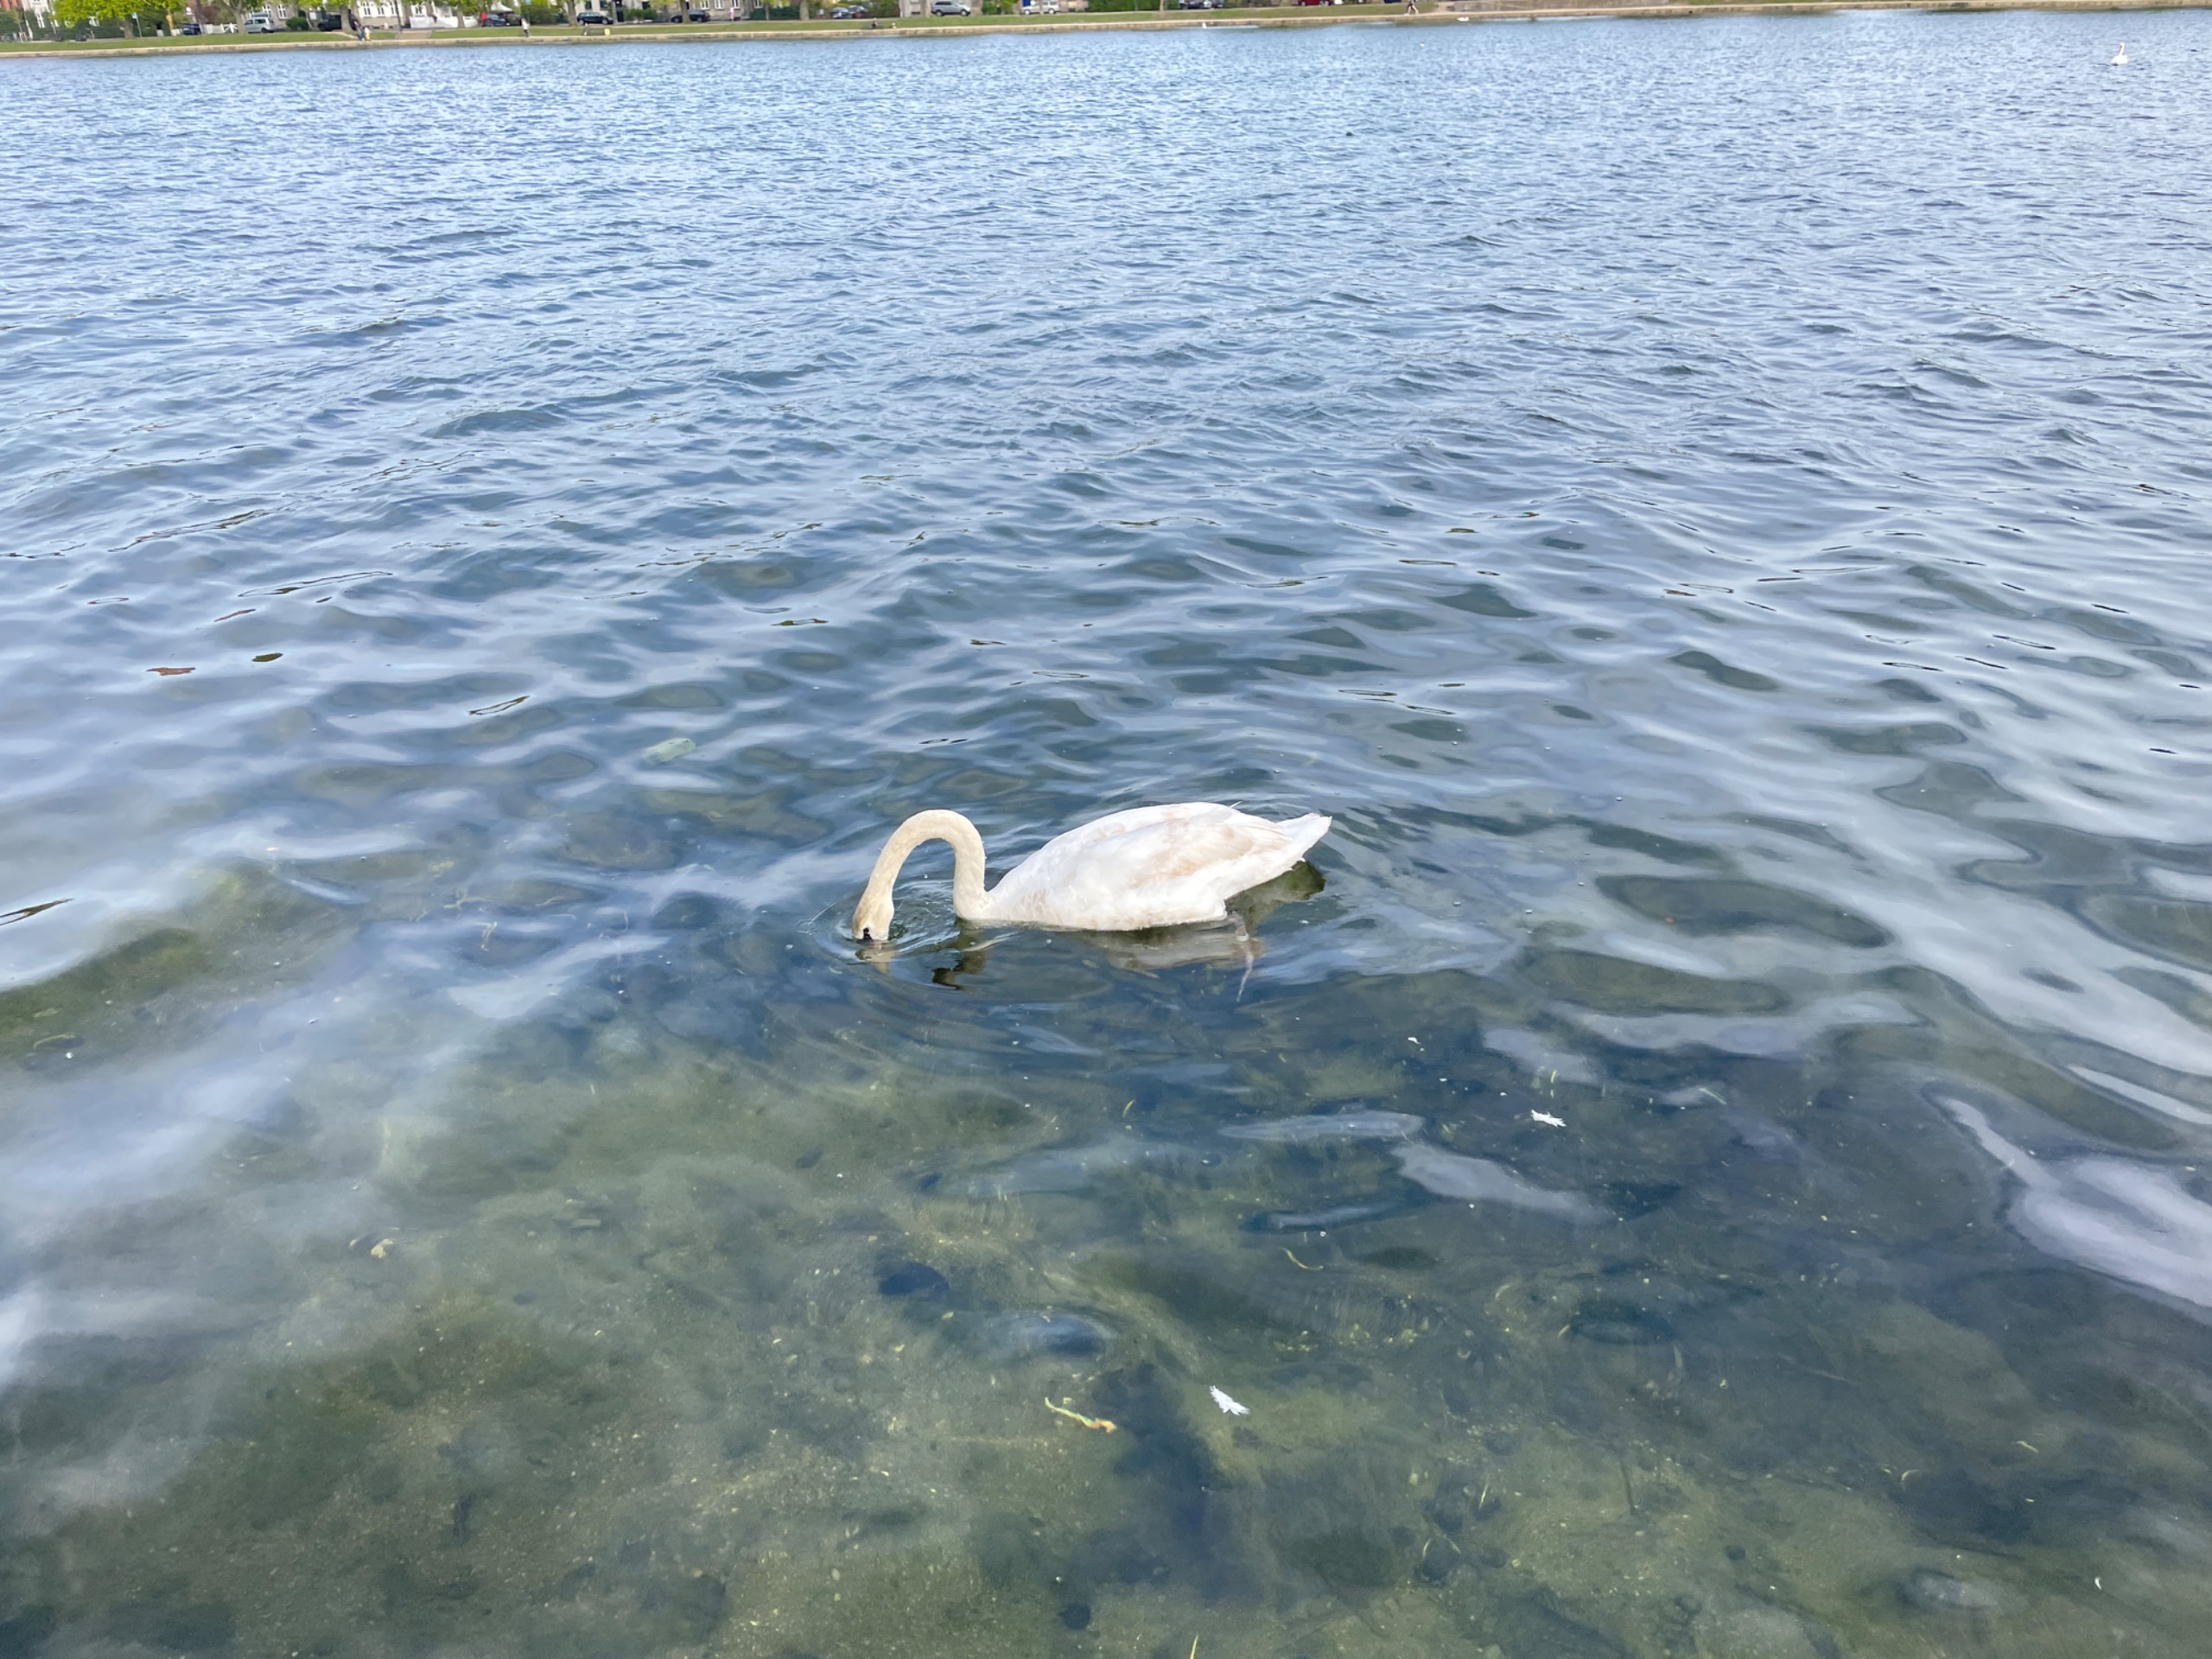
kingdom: Animalia
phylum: Chordata
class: Aves
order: Anseriformes
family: Anatidae
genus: Cygnus
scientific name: Cygnus olor
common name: Knopsvane
